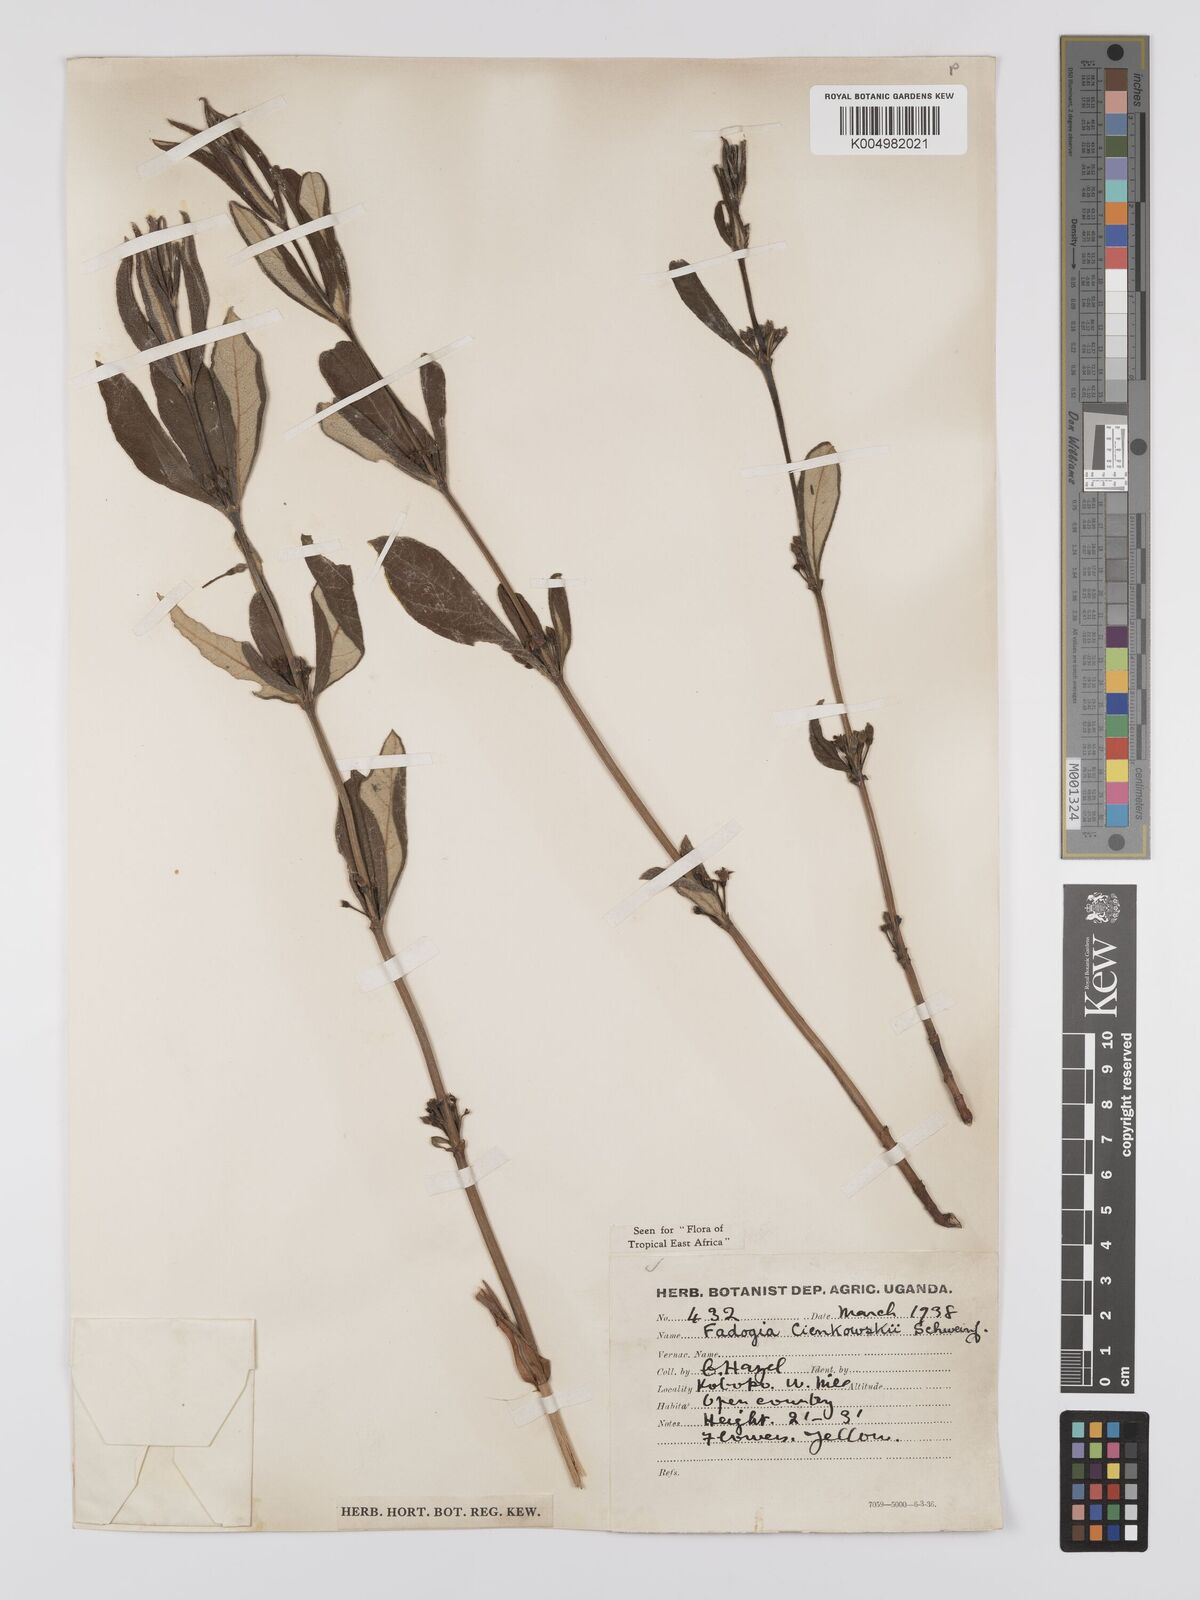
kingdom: Plantae
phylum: Tracheophyta
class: Magnoliopsida
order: Gentianales
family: Rubiaceae
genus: Fadogia
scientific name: Fadogia cienkowskii
